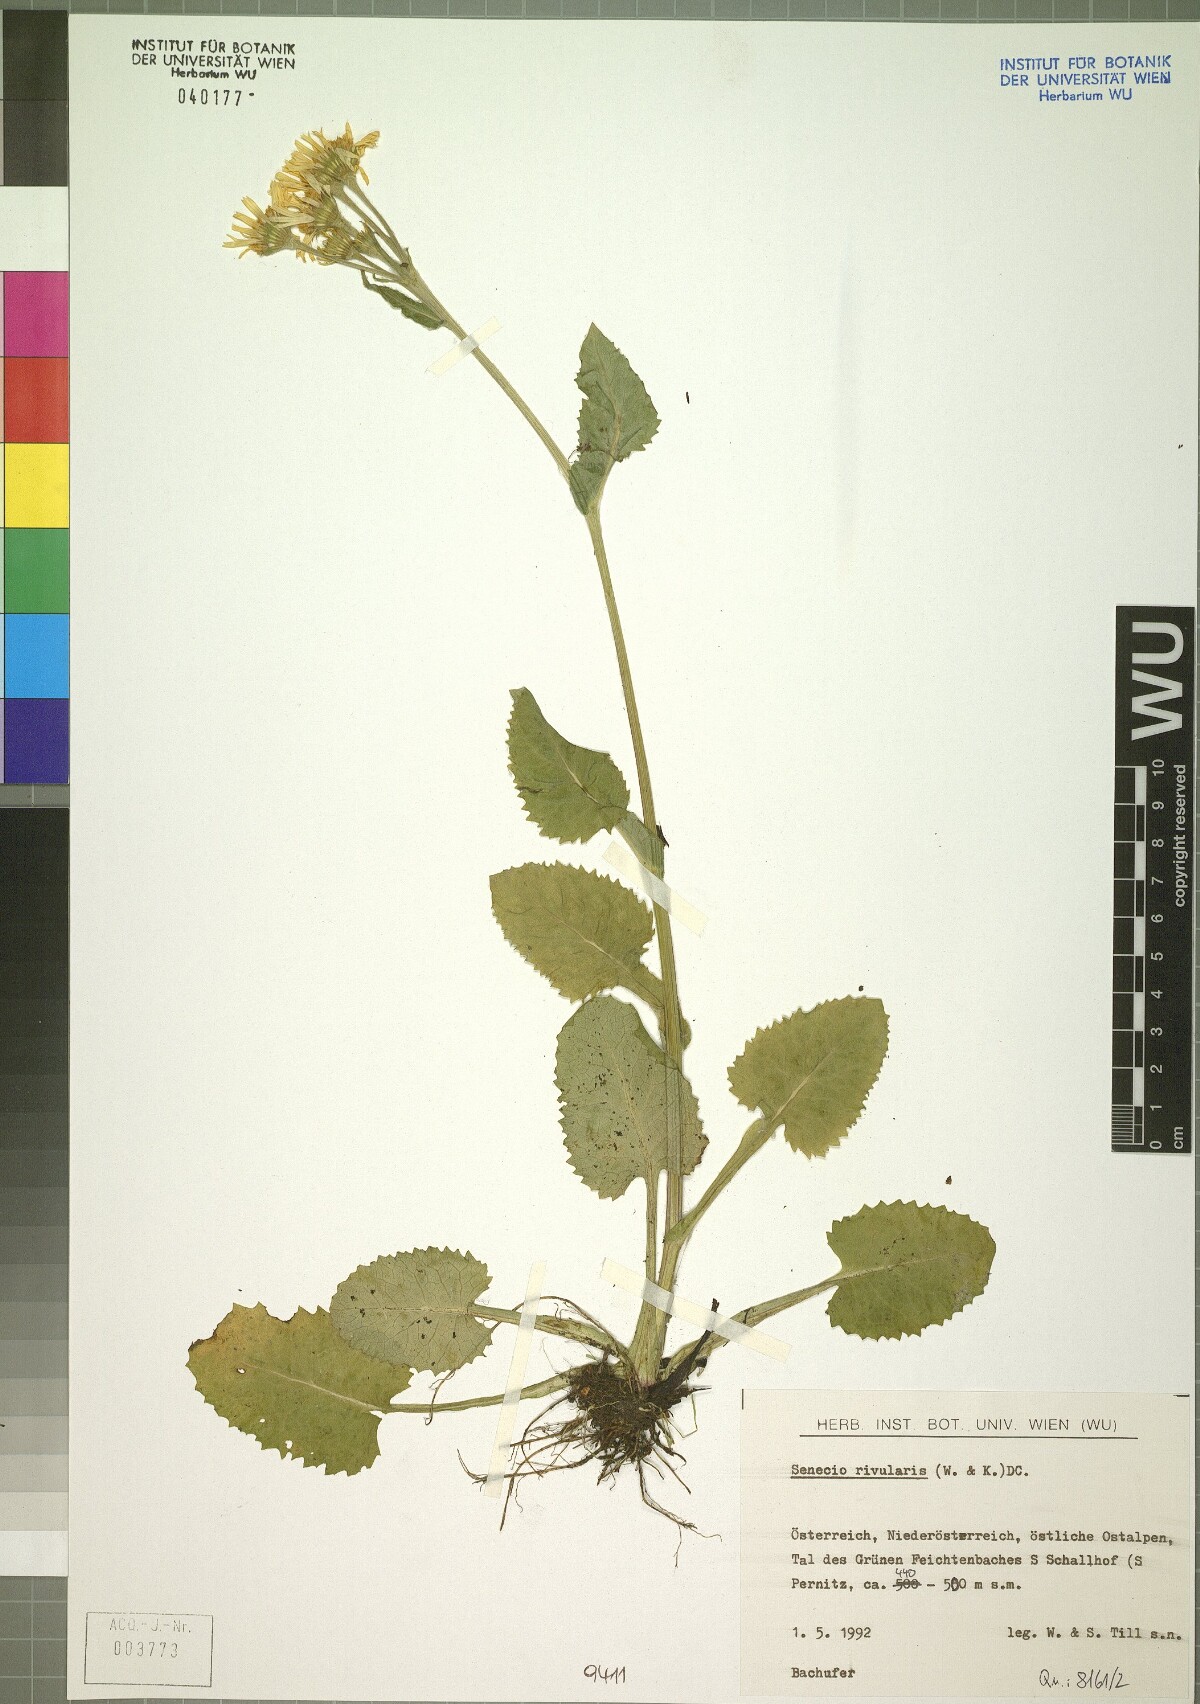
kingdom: Plantae
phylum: Tracheophyta
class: Magnoliopsida
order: Asterales
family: Asteraceae
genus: Tephroseris
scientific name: Tephroseris crispa
